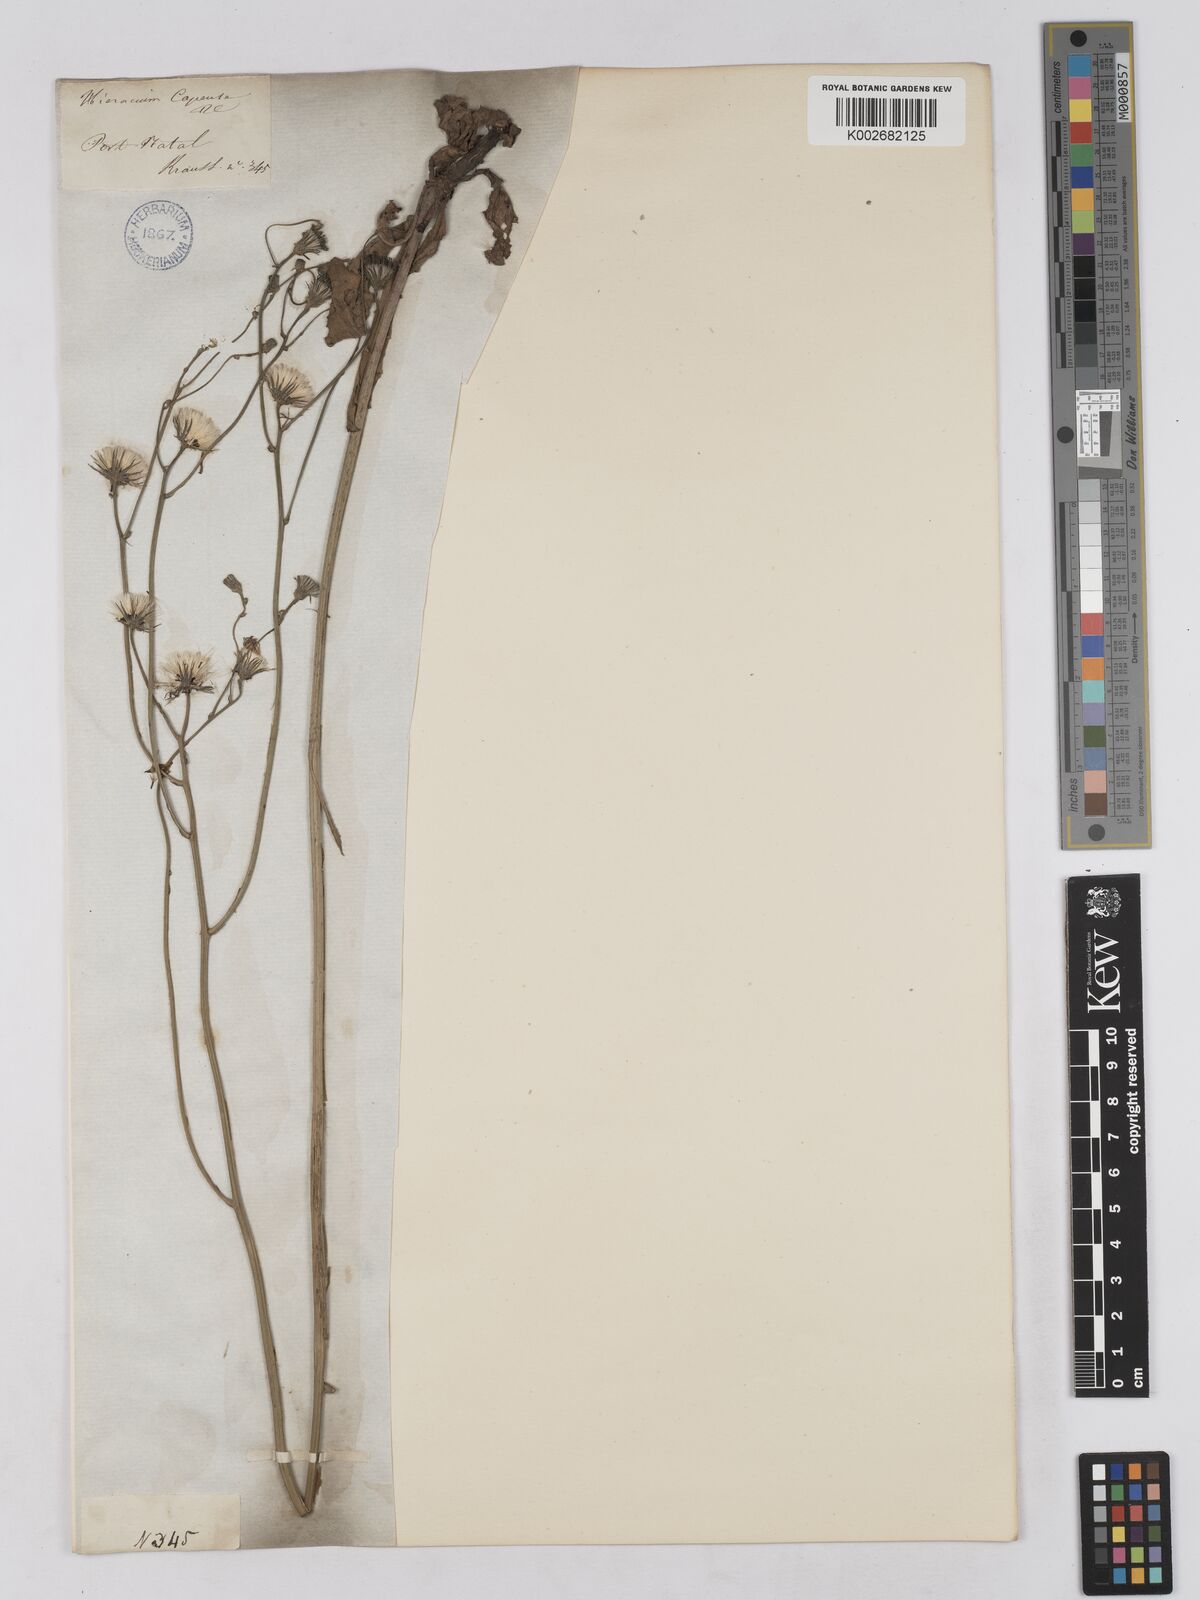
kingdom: Plantae
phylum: Tracheophyta
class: Magnoliopsida
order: Asterales
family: Asteraceae
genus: Tolpis
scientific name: Tolpis capensis
